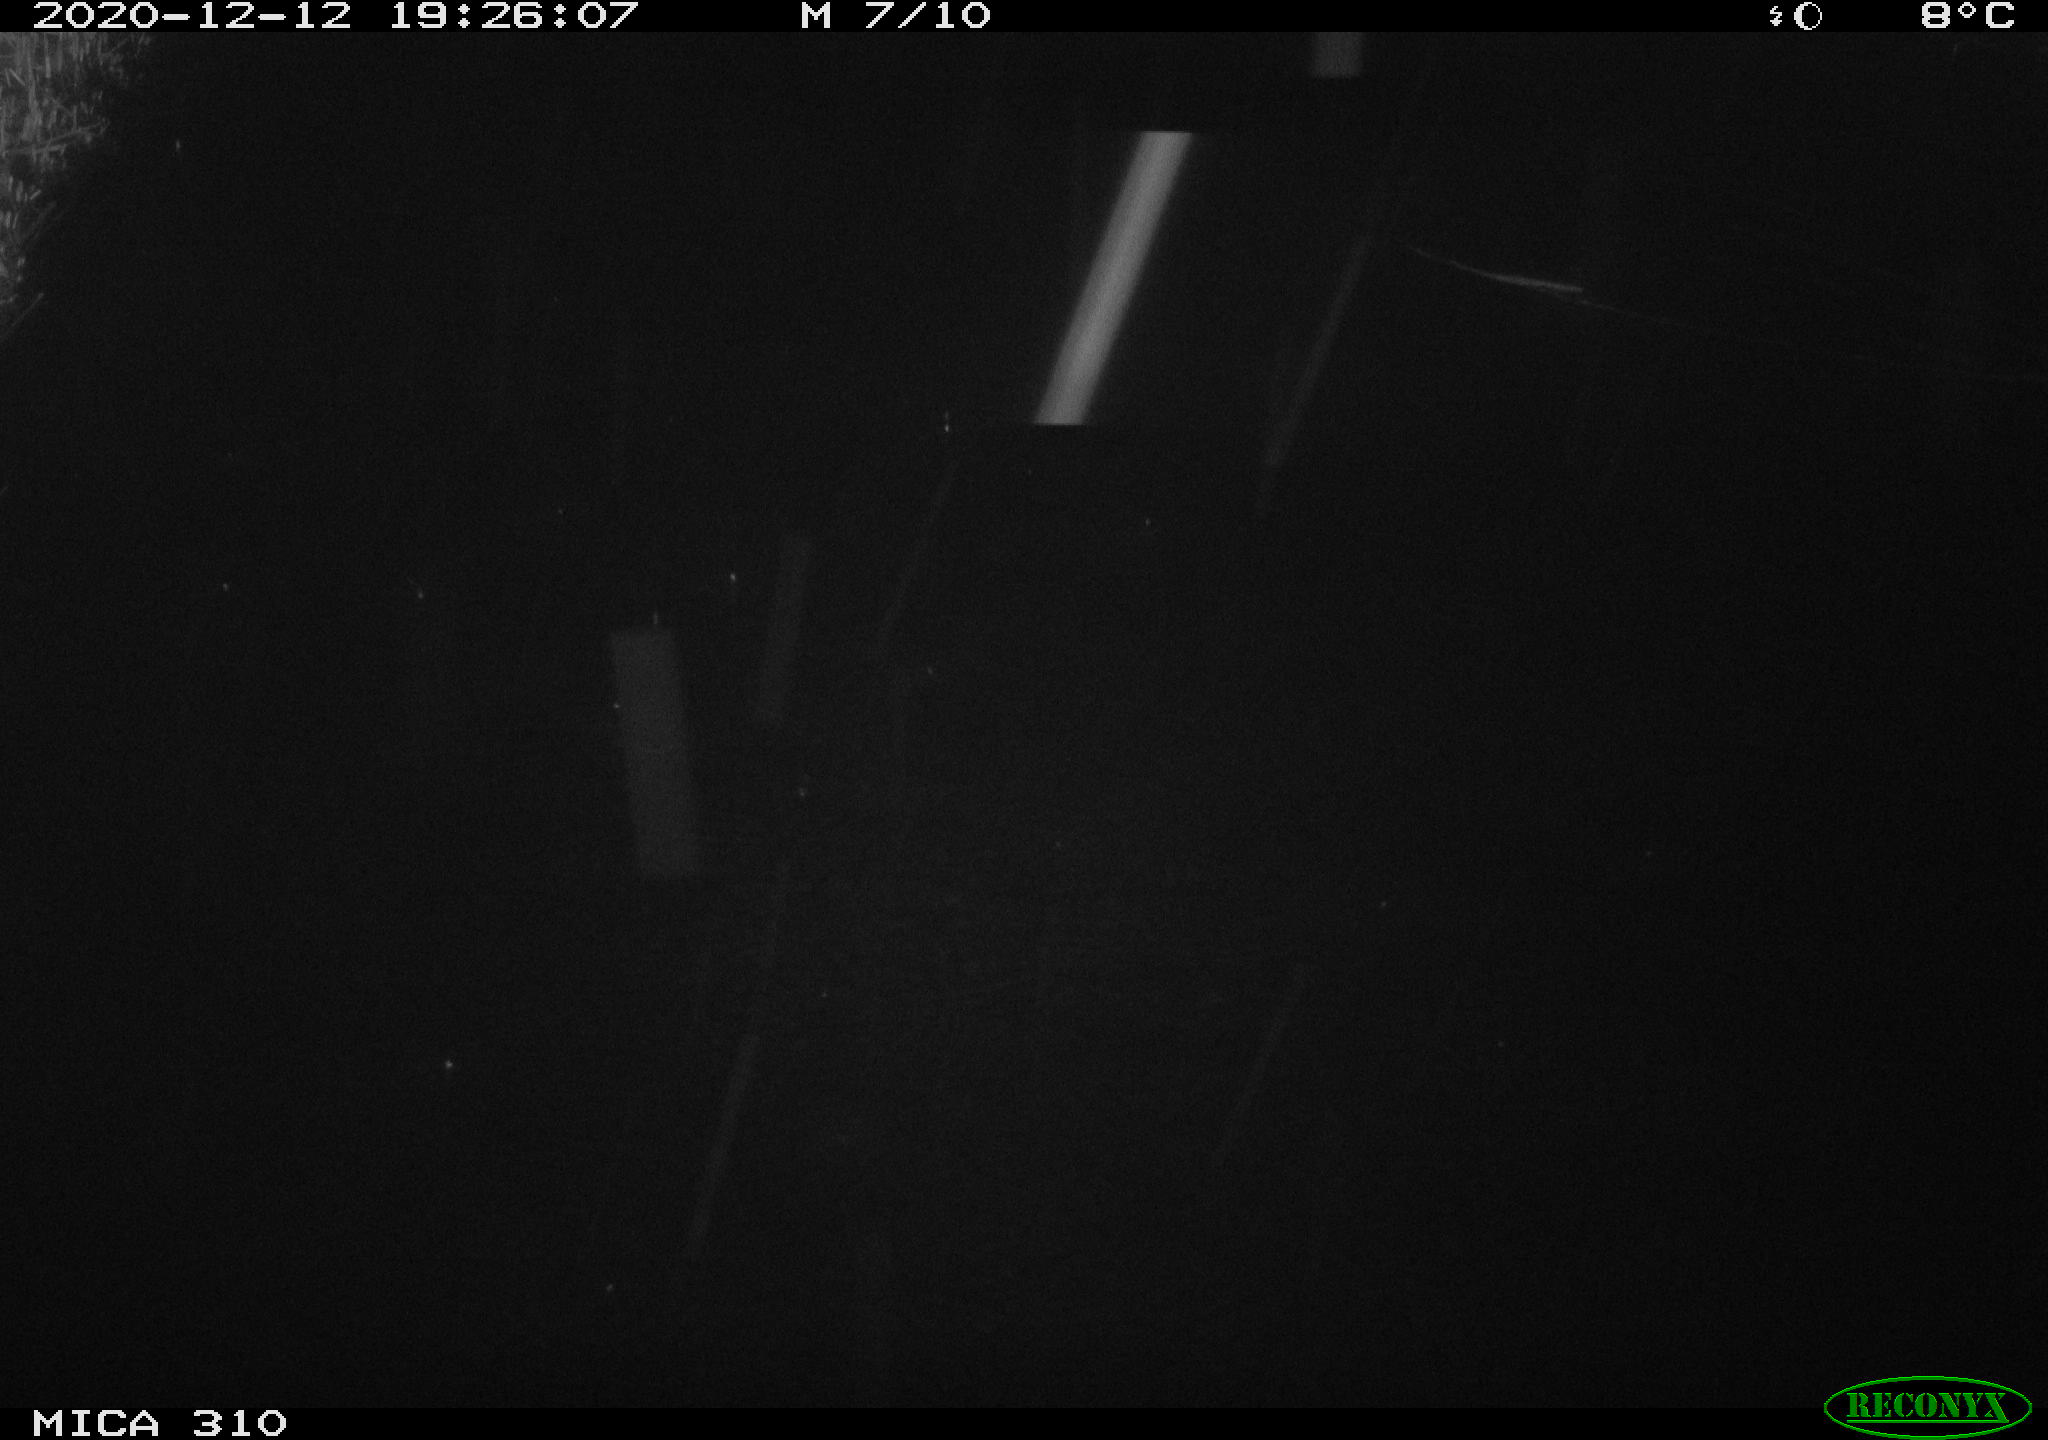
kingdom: Animalia
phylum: Chordata
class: Mammalia
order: Rodentia
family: Cricetidae
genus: Ondatra
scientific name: Ondatra zibethicus
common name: Muskrat
